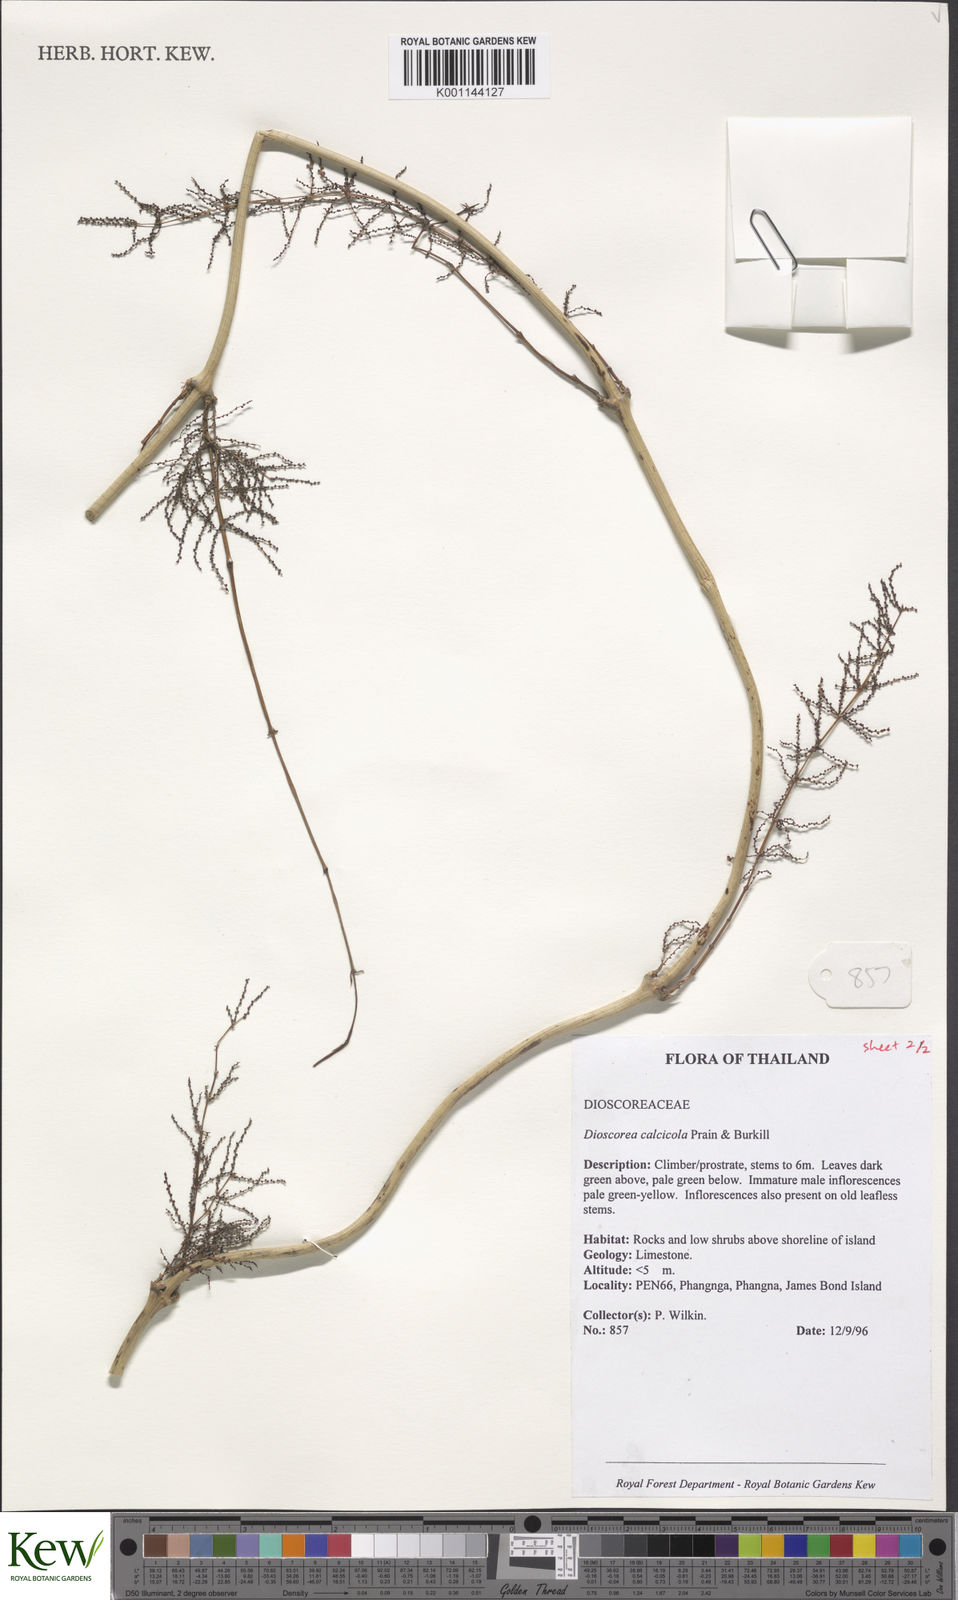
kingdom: Plantae
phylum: Tracheophyta
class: Liliopsida
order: Dioscoreales
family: Dioscoreaceae
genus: Dioscorea
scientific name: Dioscorea calcicola
